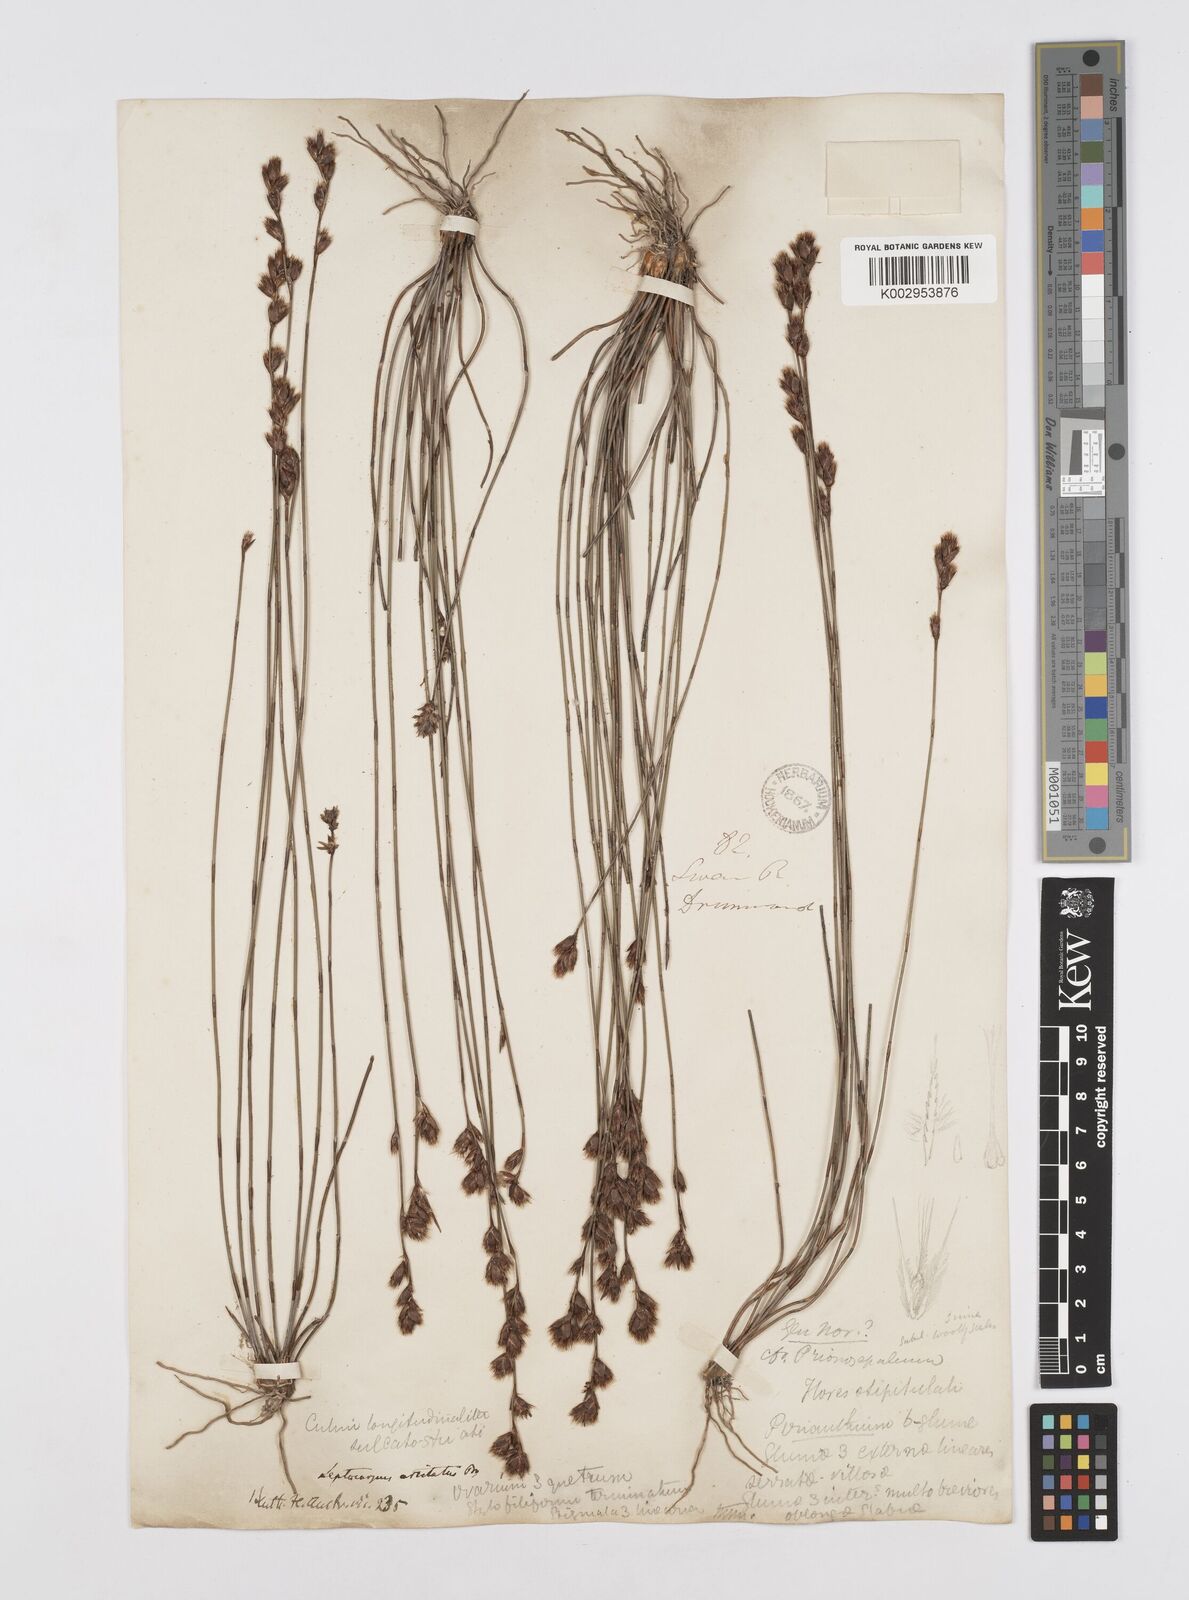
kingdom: Plantae
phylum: Tracheophyta
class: Liliopsida
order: Poales
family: Restionaceae
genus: Chaetanthus
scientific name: Chaetanthus aristatus
